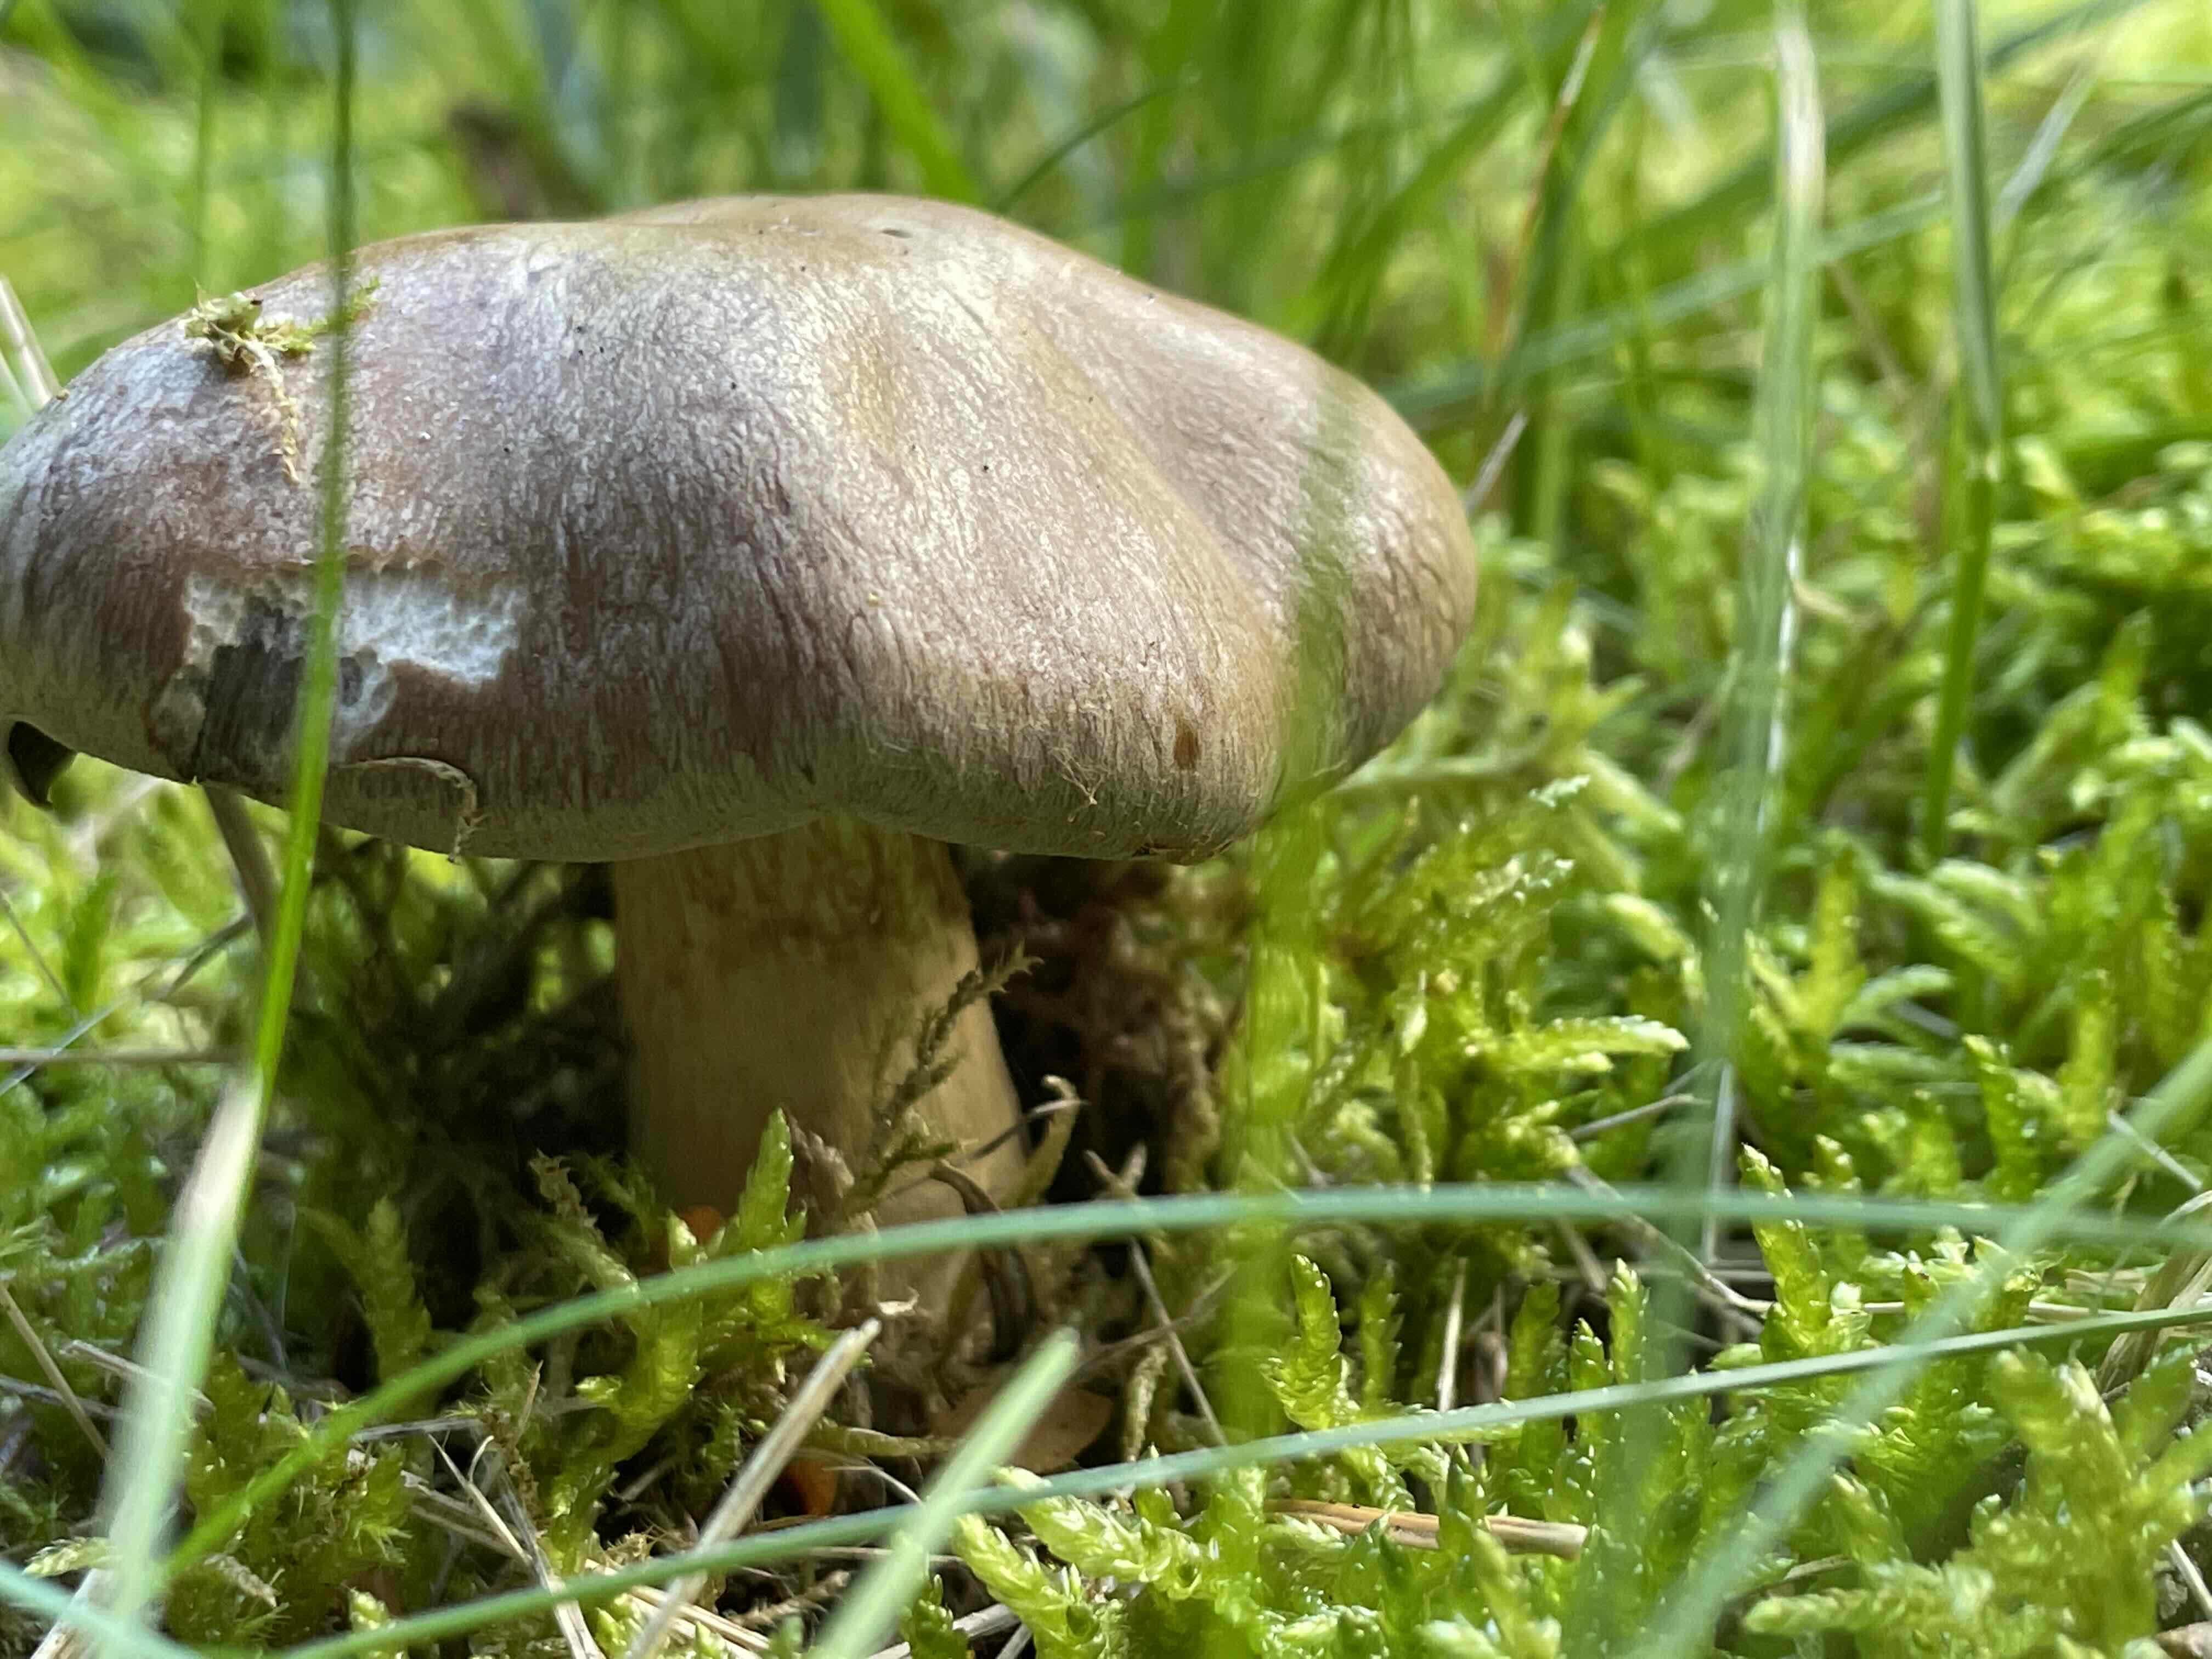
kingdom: Fungi
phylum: Basidiomycota
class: Agaricomycetes
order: Agaricales
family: Cortinariaceae
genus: Cortinarius
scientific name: Cortinarius
